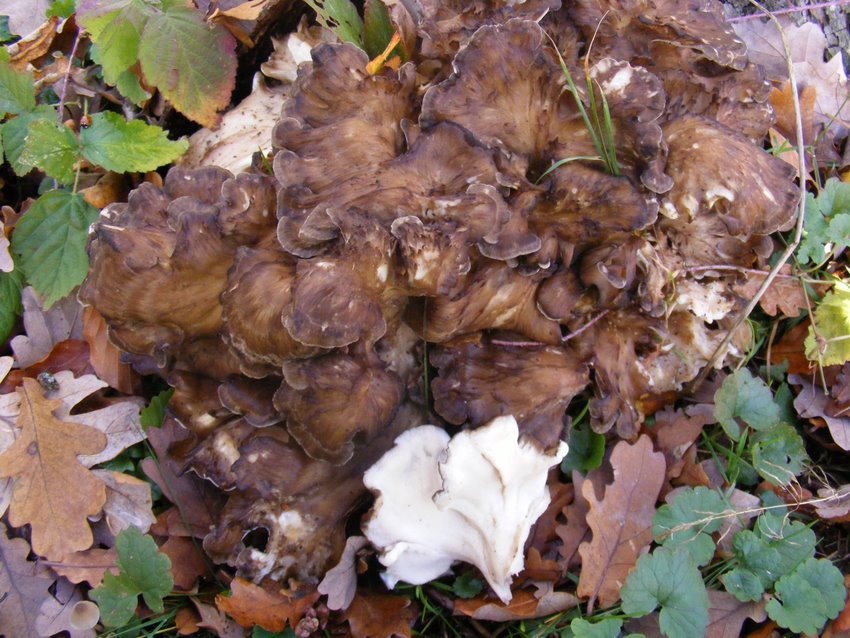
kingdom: Fungi
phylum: Basidiomycota
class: Agaricomycetes
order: Polyporales
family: Grifolaceae
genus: Grifola
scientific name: Grifola frondosa
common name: tueporesvamp
